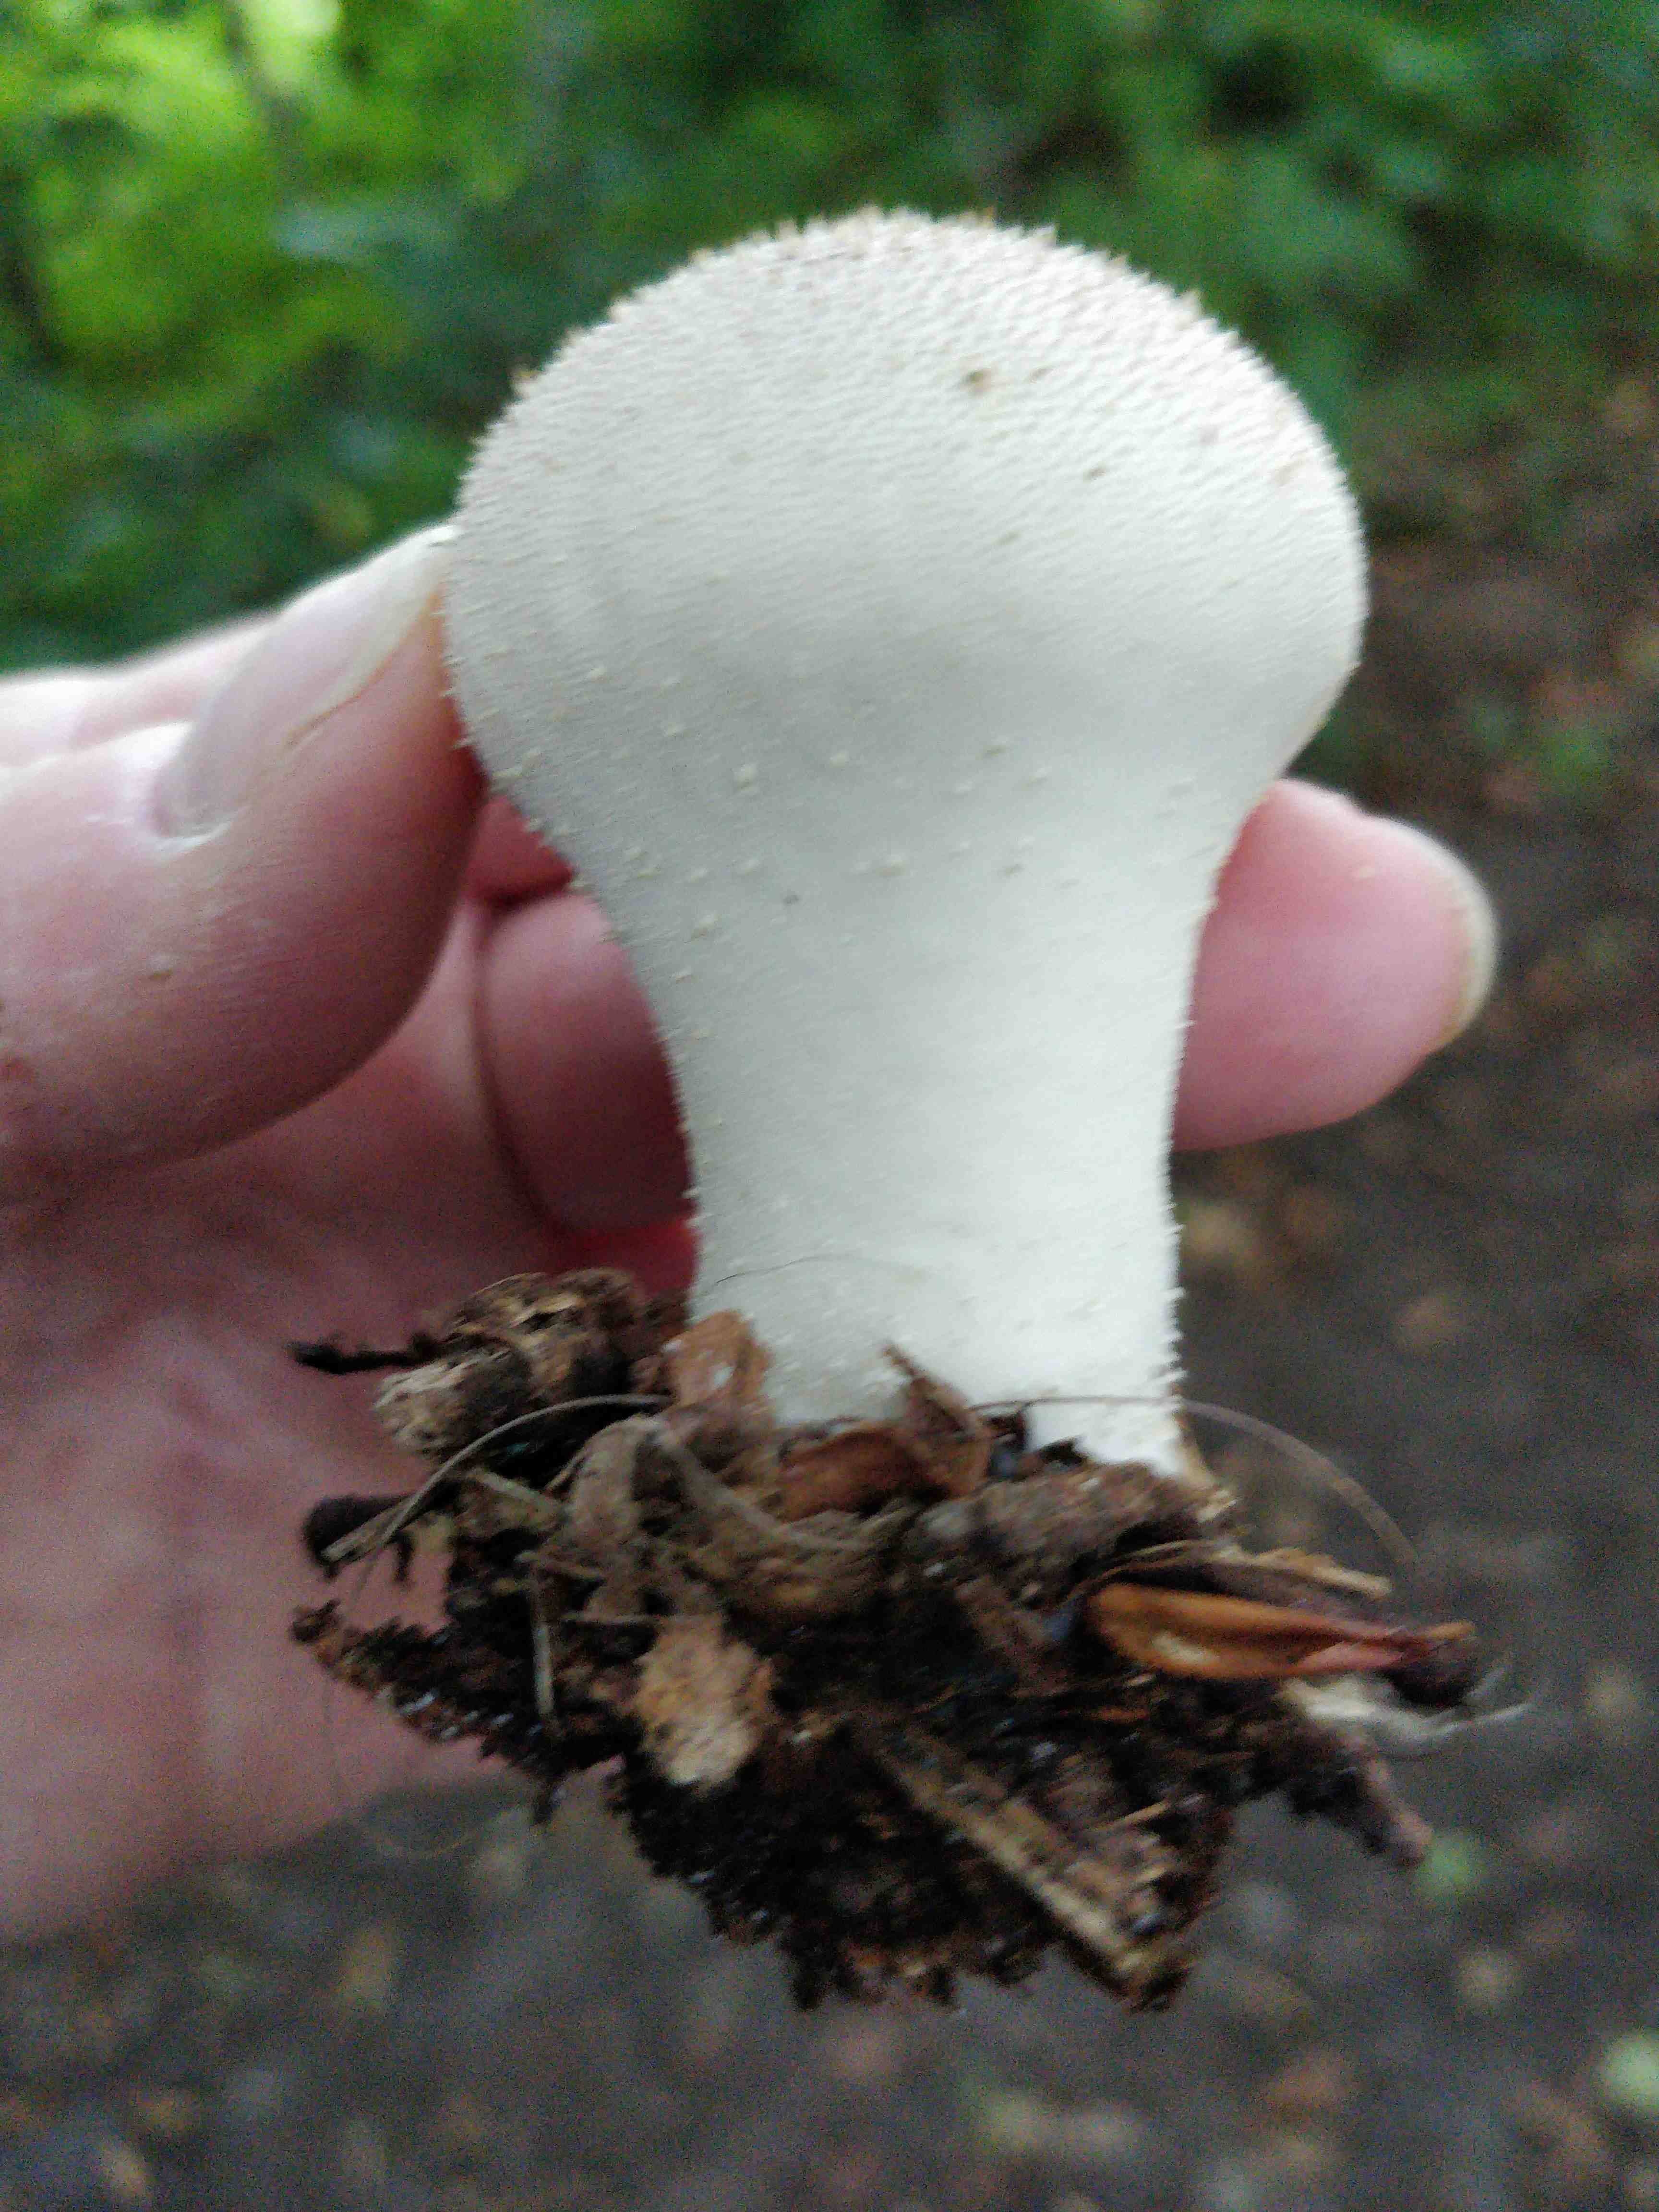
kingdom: Fungi
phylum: Basidiomycota
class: Agaricomycetes
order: Agaricales
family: Lycoperdaceae
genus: Lycoperdon
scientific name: Lycoperdon perlatum
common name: krystal-støvbold
